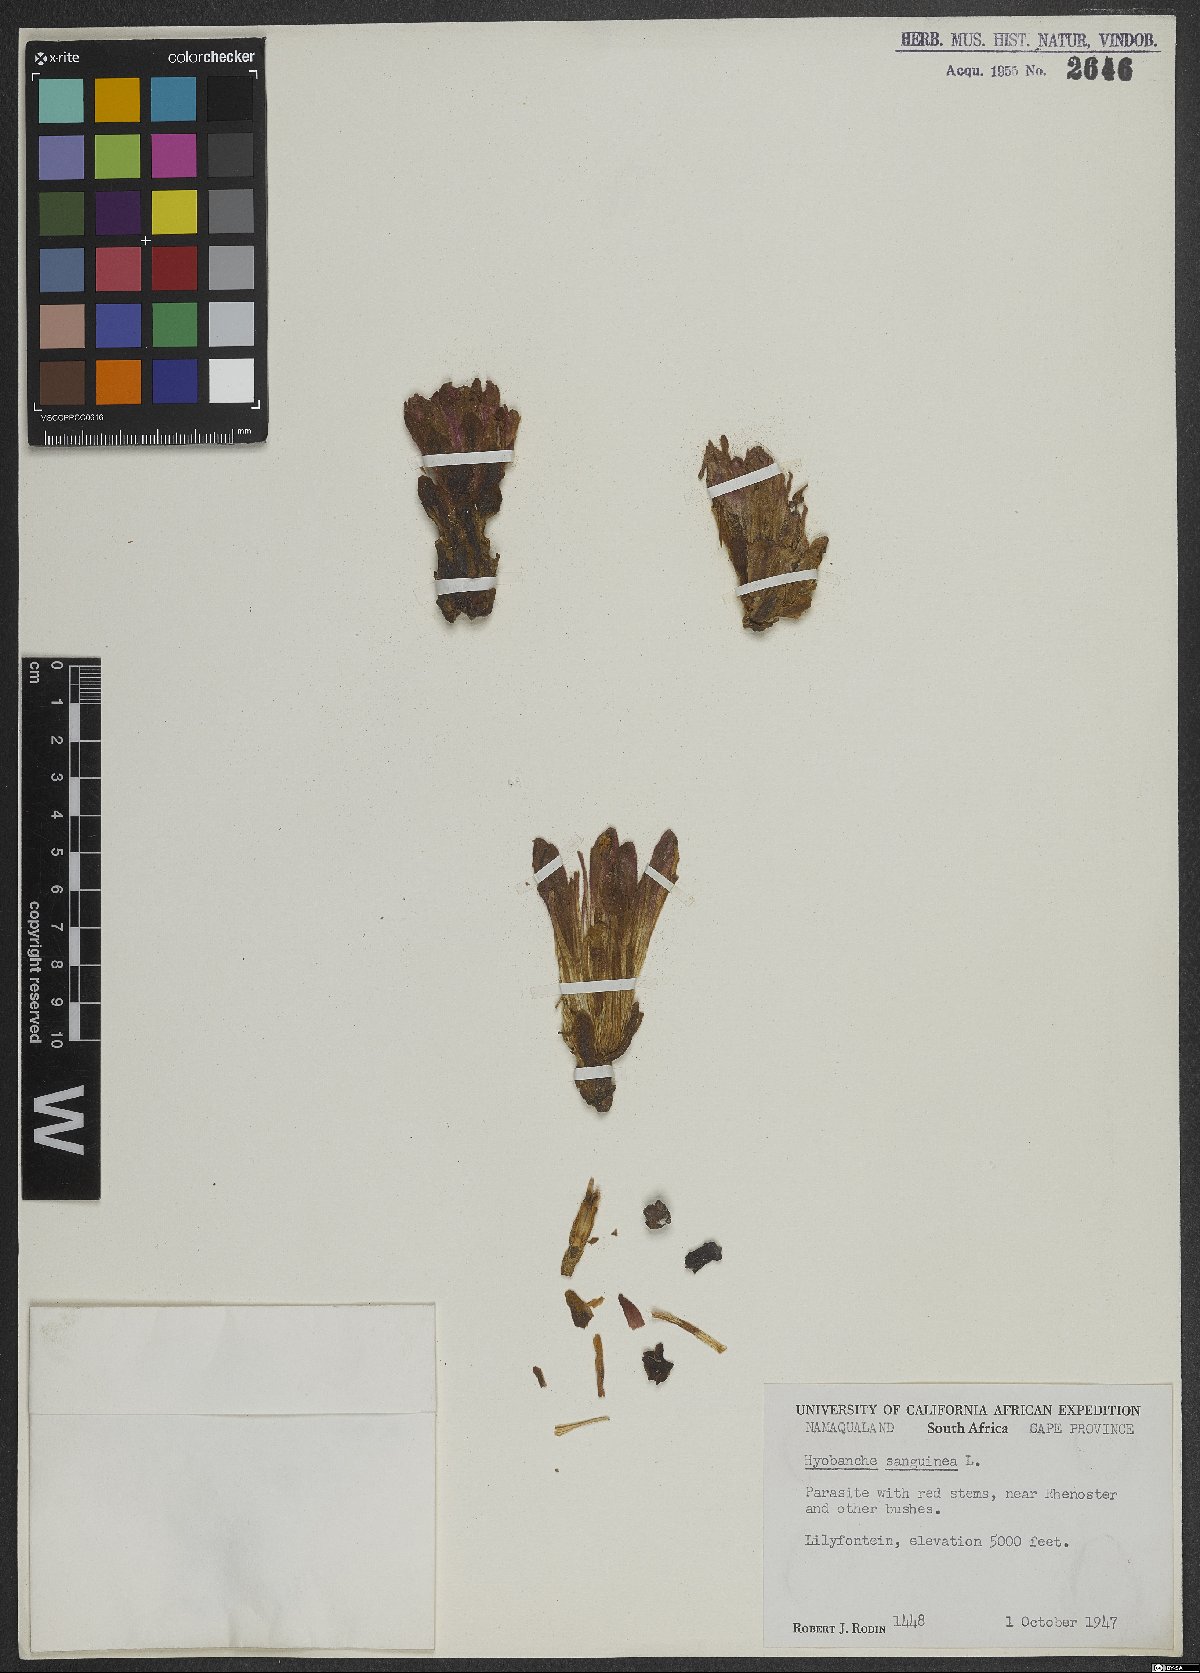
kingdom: Plantae
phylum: Tracheophyta
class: Magnoliopsida
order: Lamiales
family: Orobanchaceae
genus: Hyobanche
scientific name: Hyobanche sanguinea
